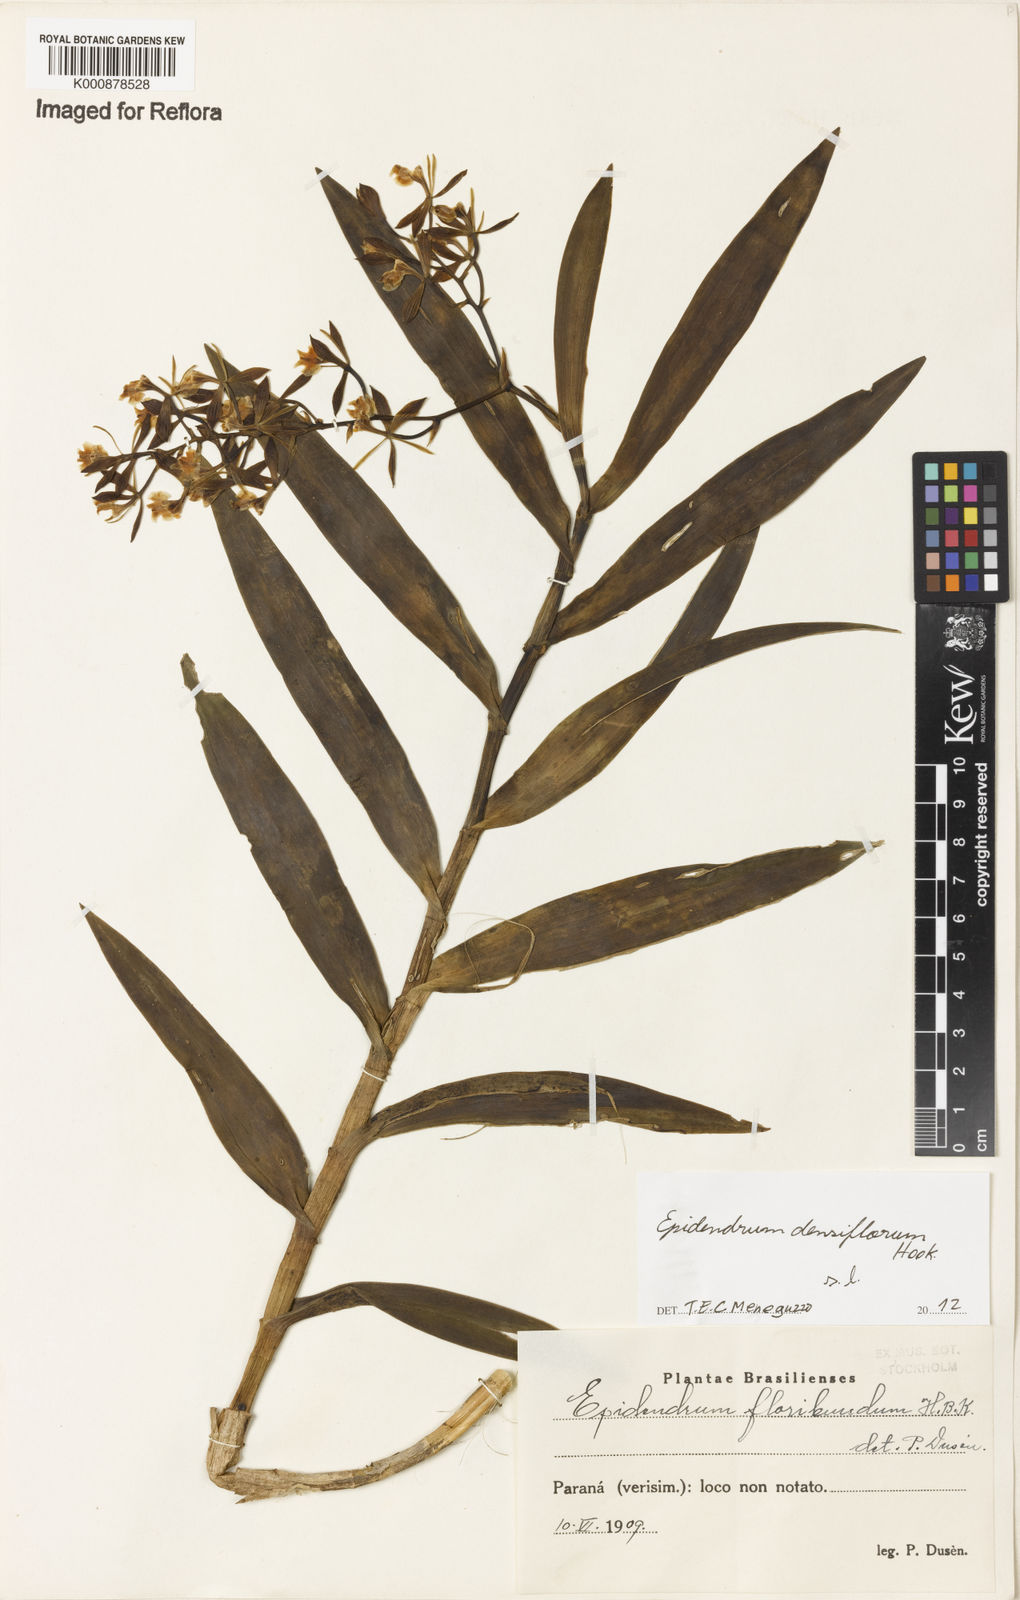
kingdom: Plantae
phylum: Tracheophyta
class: Liliopsida
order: Asparagales
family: Orchidaceae
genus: Epidendrum
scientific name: Epidendrum densiflorum
